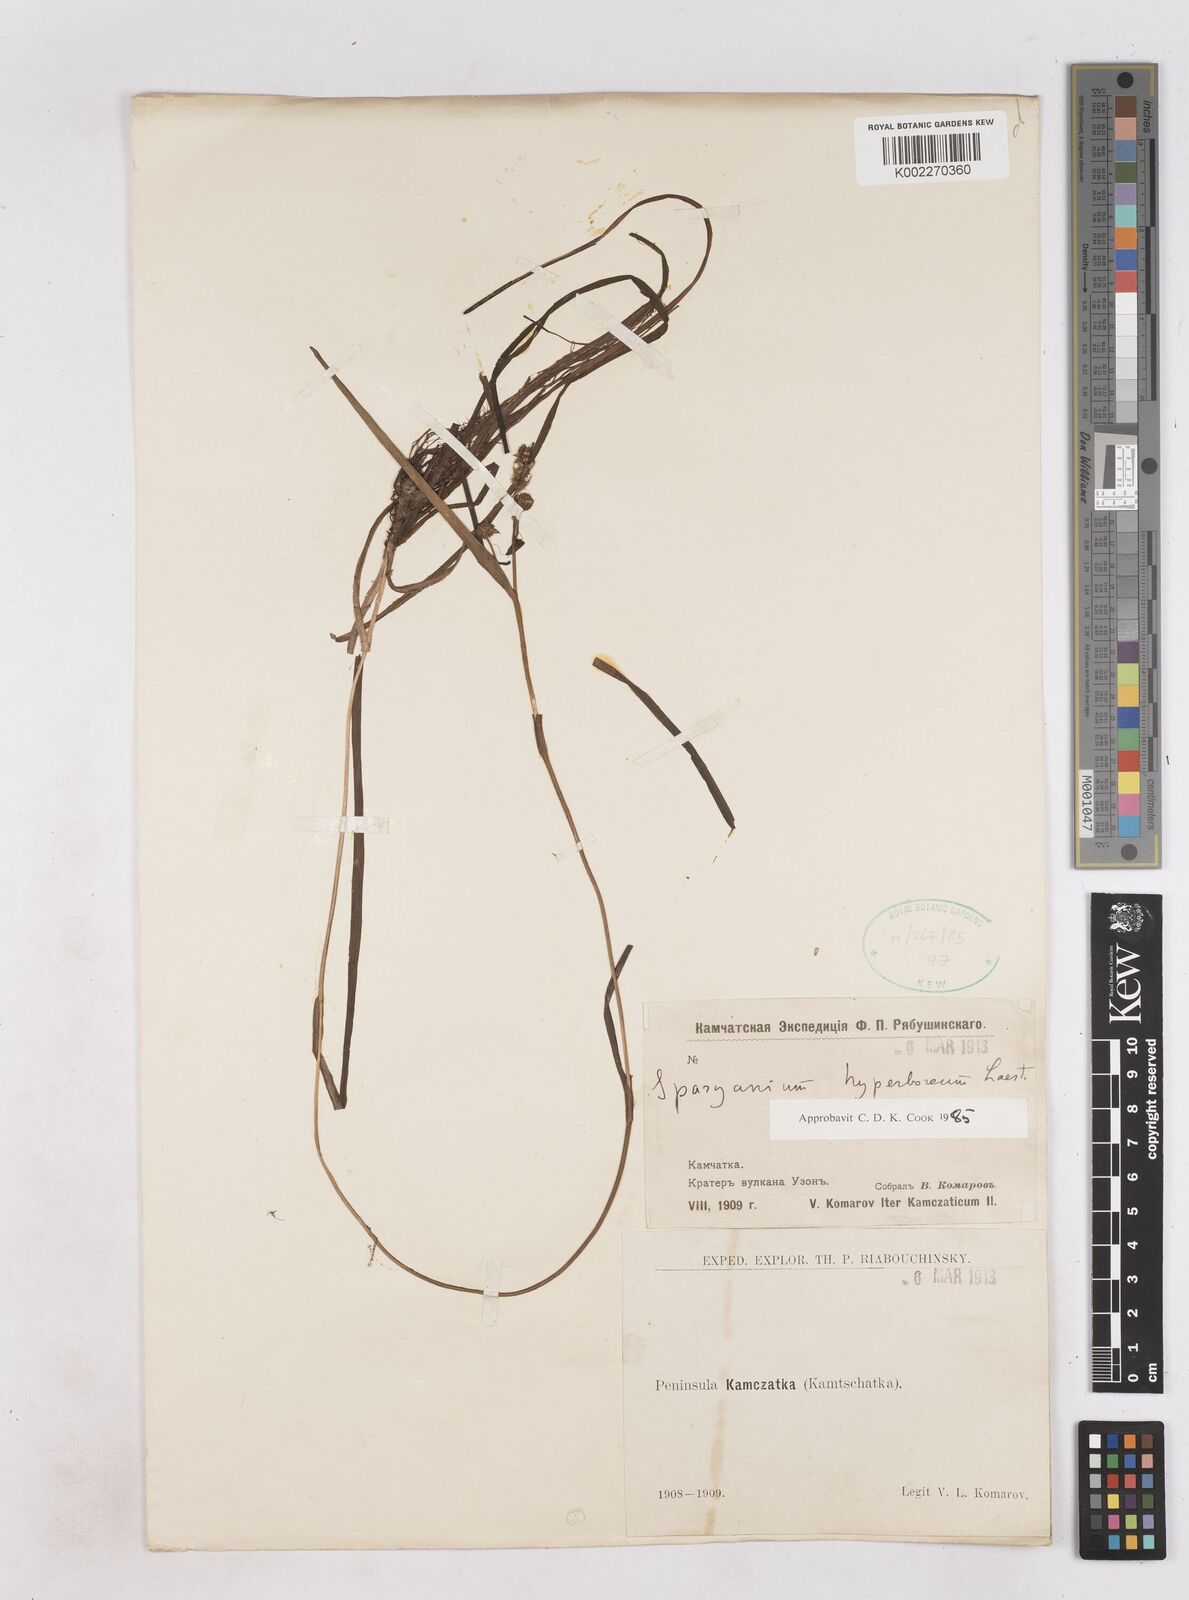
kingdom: Plantae
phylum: Tracheophyta
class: Liliopsida
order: Poales
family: Typhaceae
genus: Sparganium
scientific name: Sparganium hyperboreum
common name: Arctic burreed
